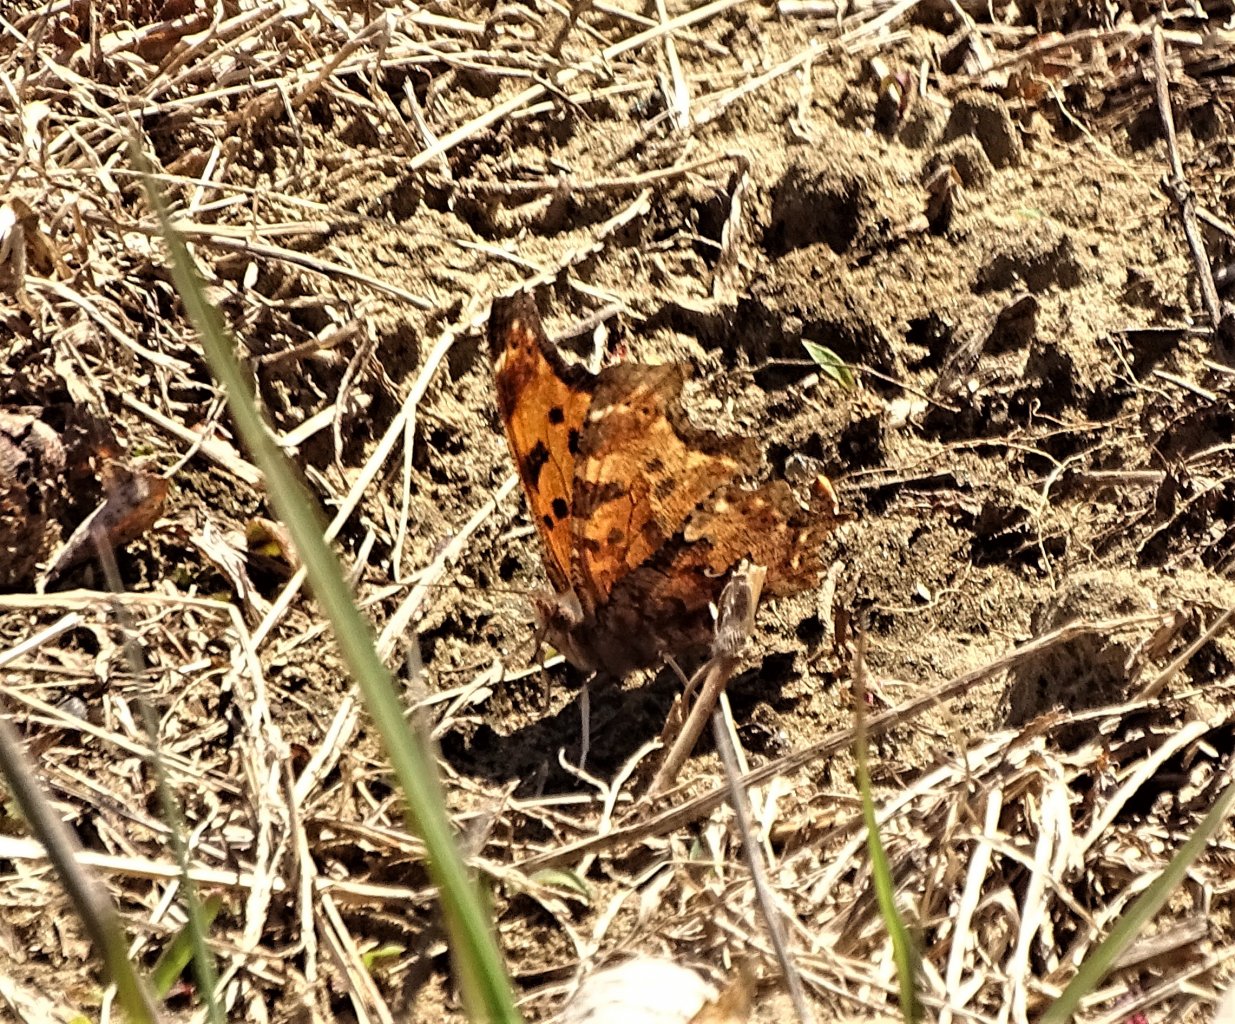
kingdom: Animalia
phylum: Arthropoda
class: Insecta
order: Lepidoptera
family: Nymphalidae
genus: Polygonia
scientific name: Polygonia comma
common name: Eastern Comma
